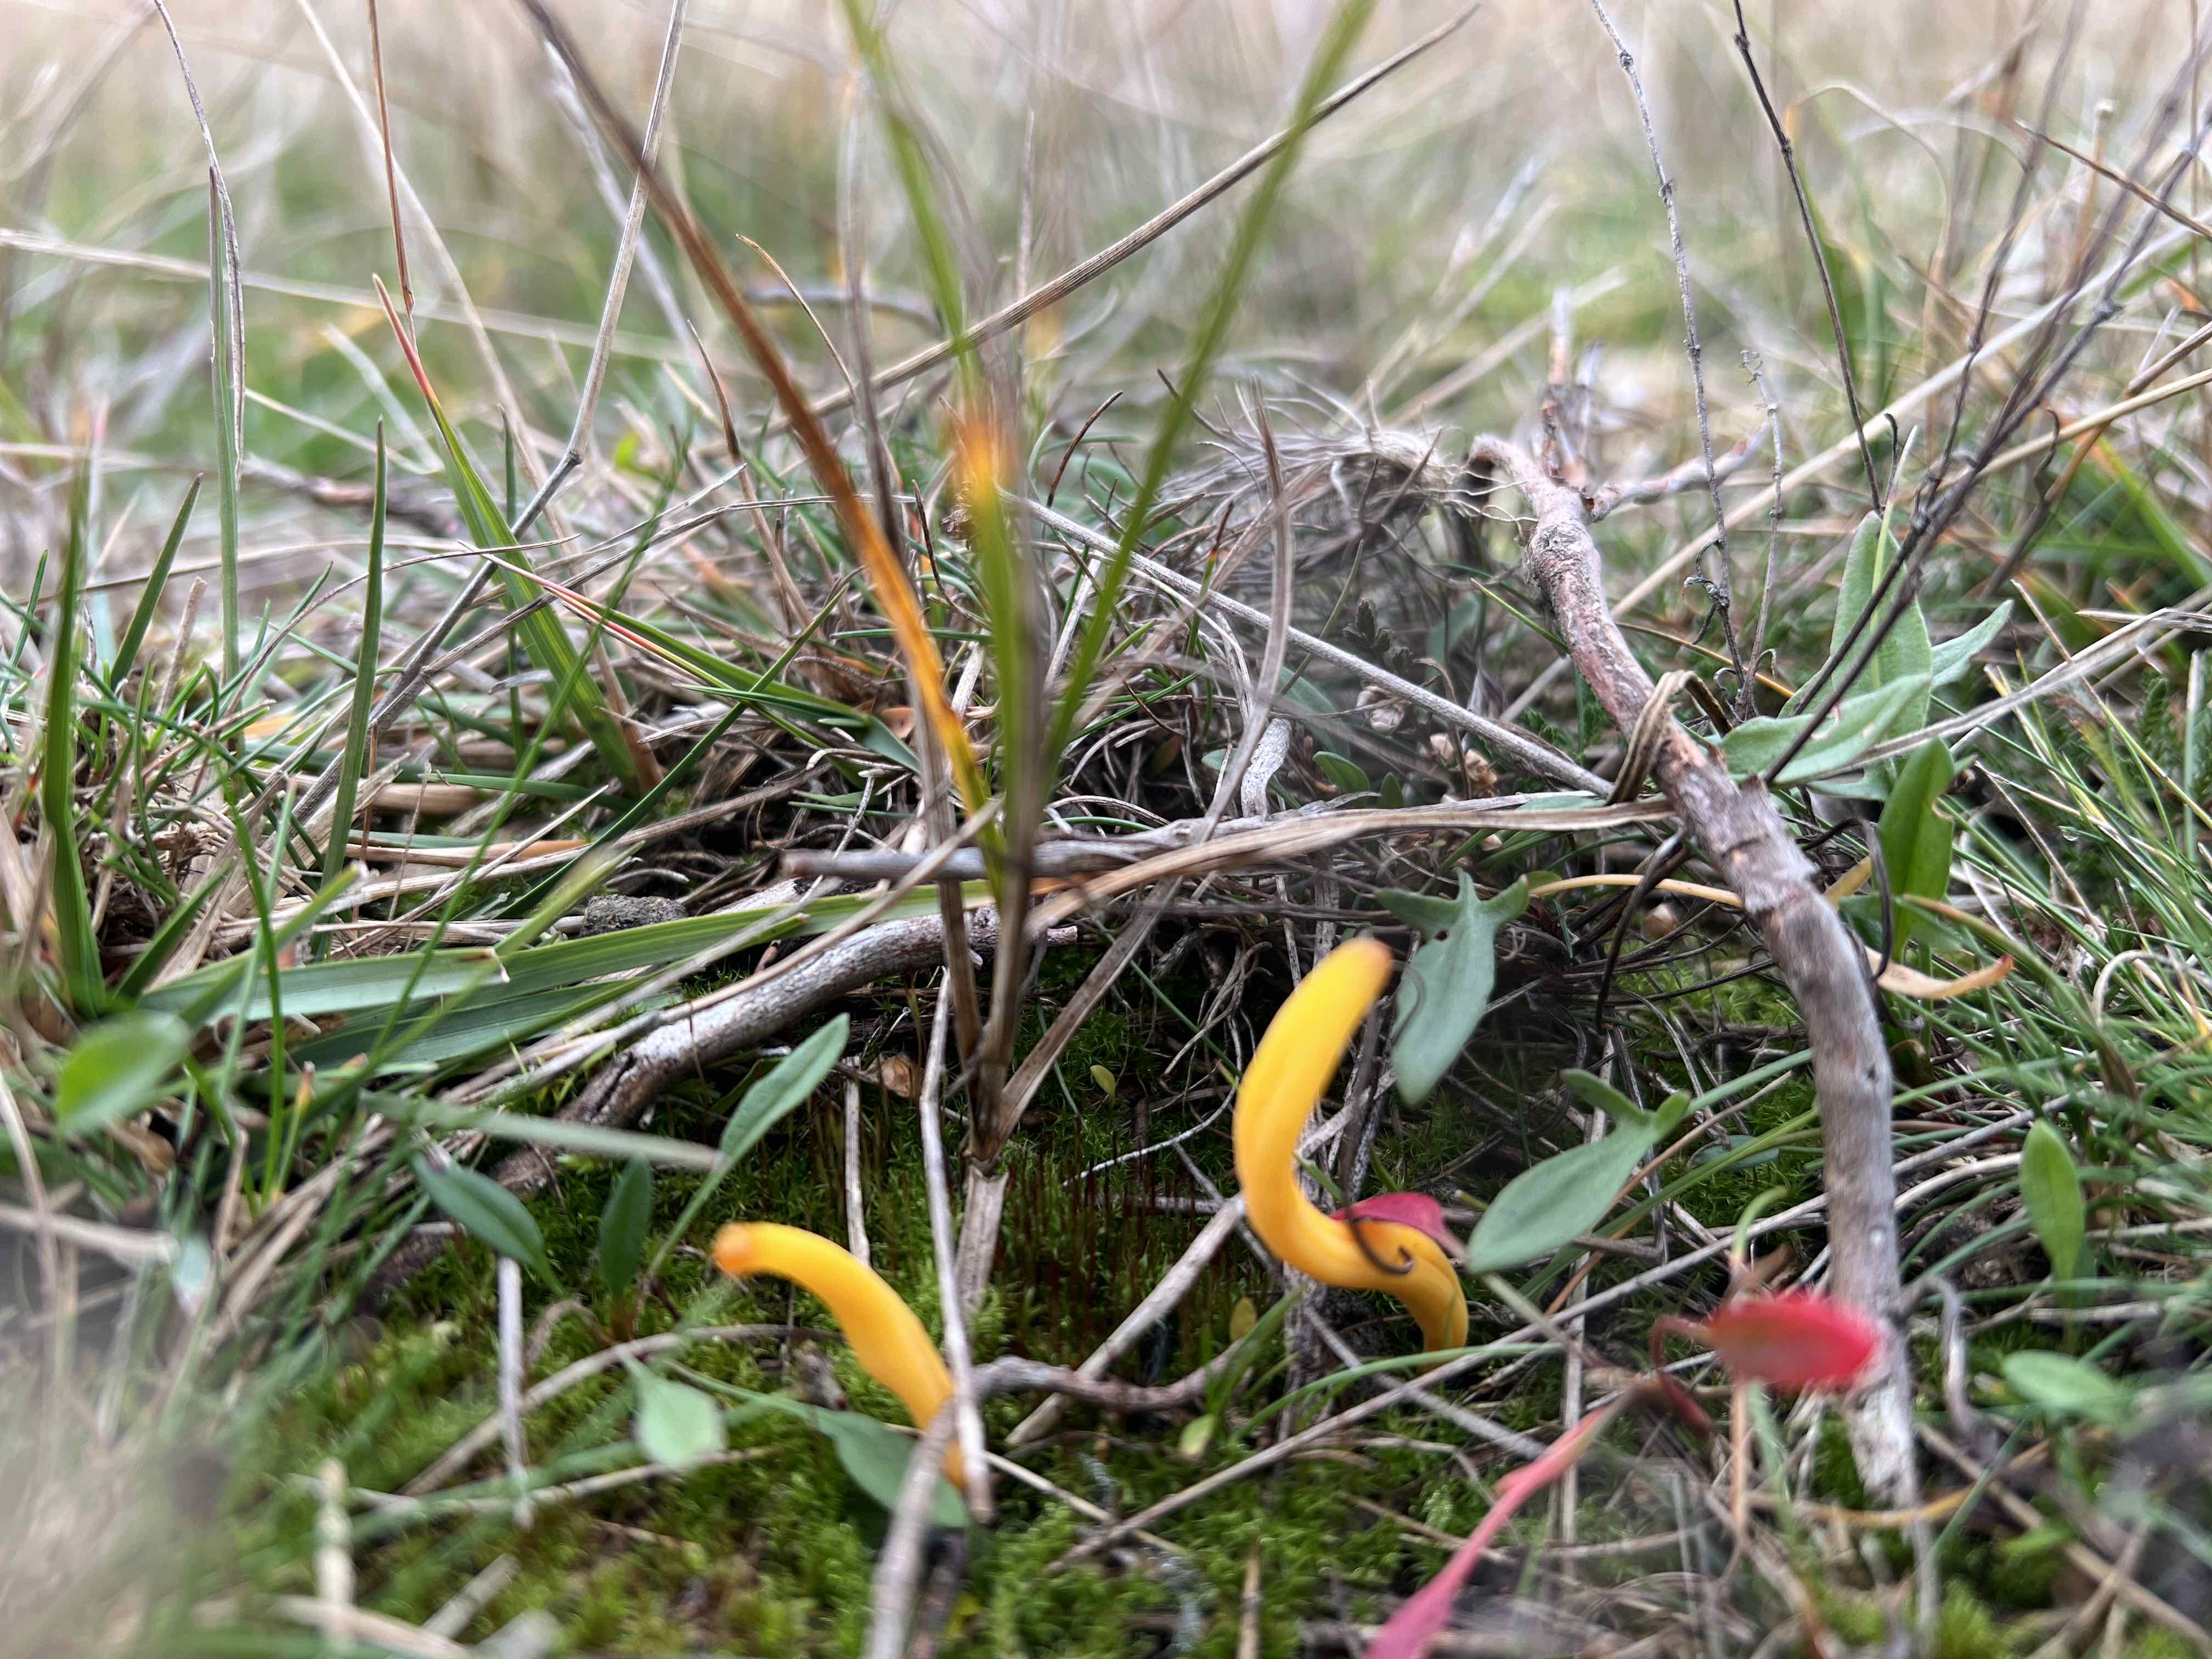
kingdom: Fungi
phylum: Basidiomycota
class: Agaricomycetes
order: Agaricales
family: Clavariaceae
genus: Clavulinopsis
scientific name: Clavulinopsis
